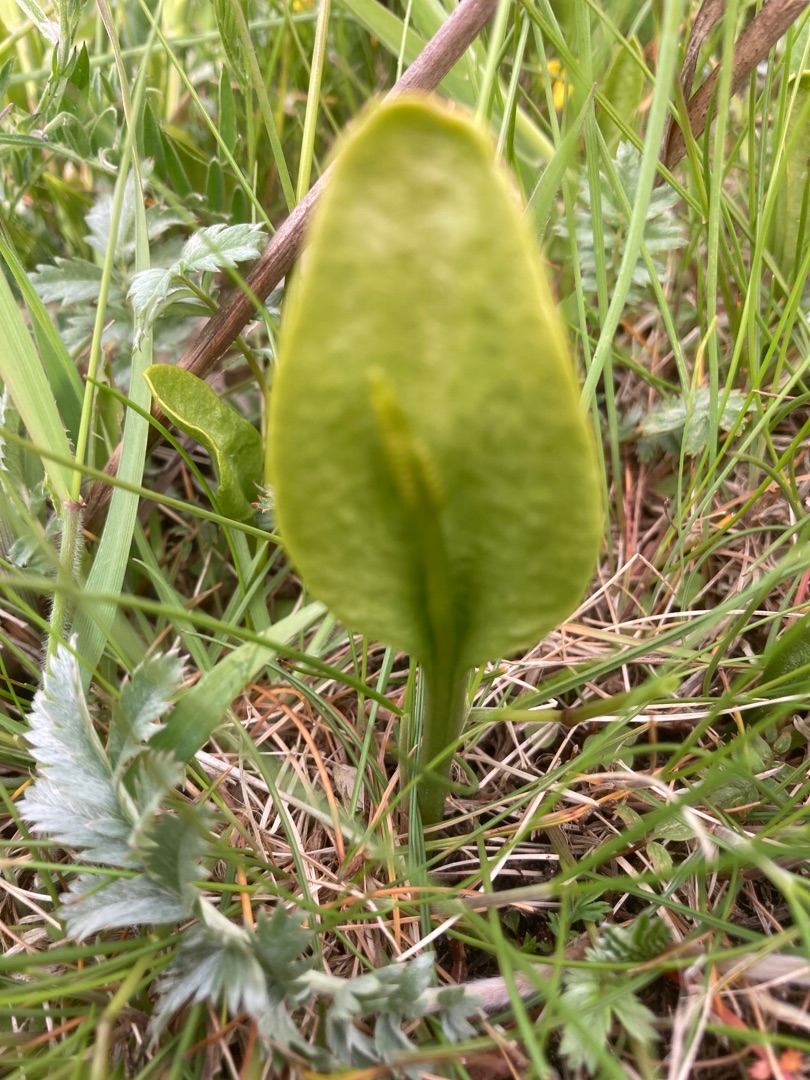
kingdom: Plantae
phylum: Tracheophyta
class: Polypodiopsida
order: Ophioglossales
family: Ophioglossaceae
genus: Ophioglossum
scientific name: Ophioglossum vulgatum
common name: Slangetunge
